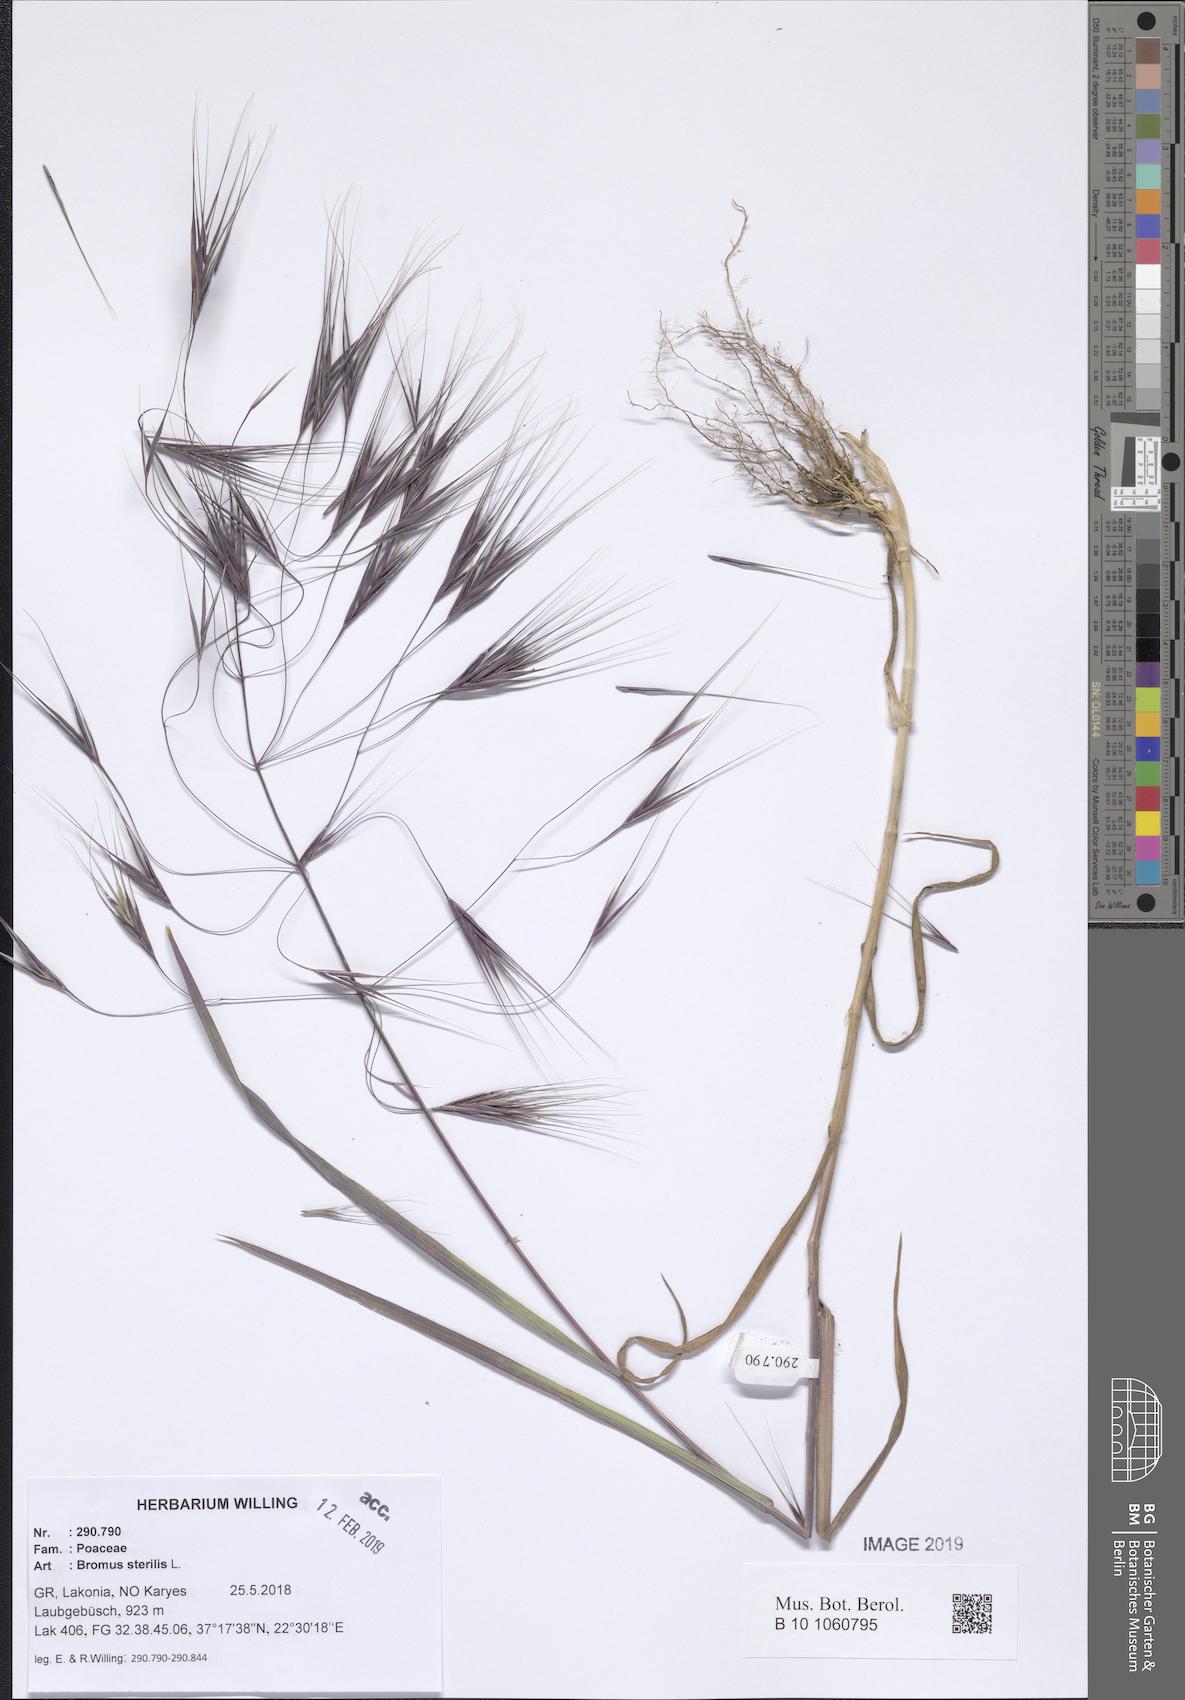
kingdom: Plantae
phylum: Tracheophyta
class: Liliopsida
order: Poales
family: Poaceae
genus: Bromus
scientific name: Bromus sterilis
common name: Poverty brome
